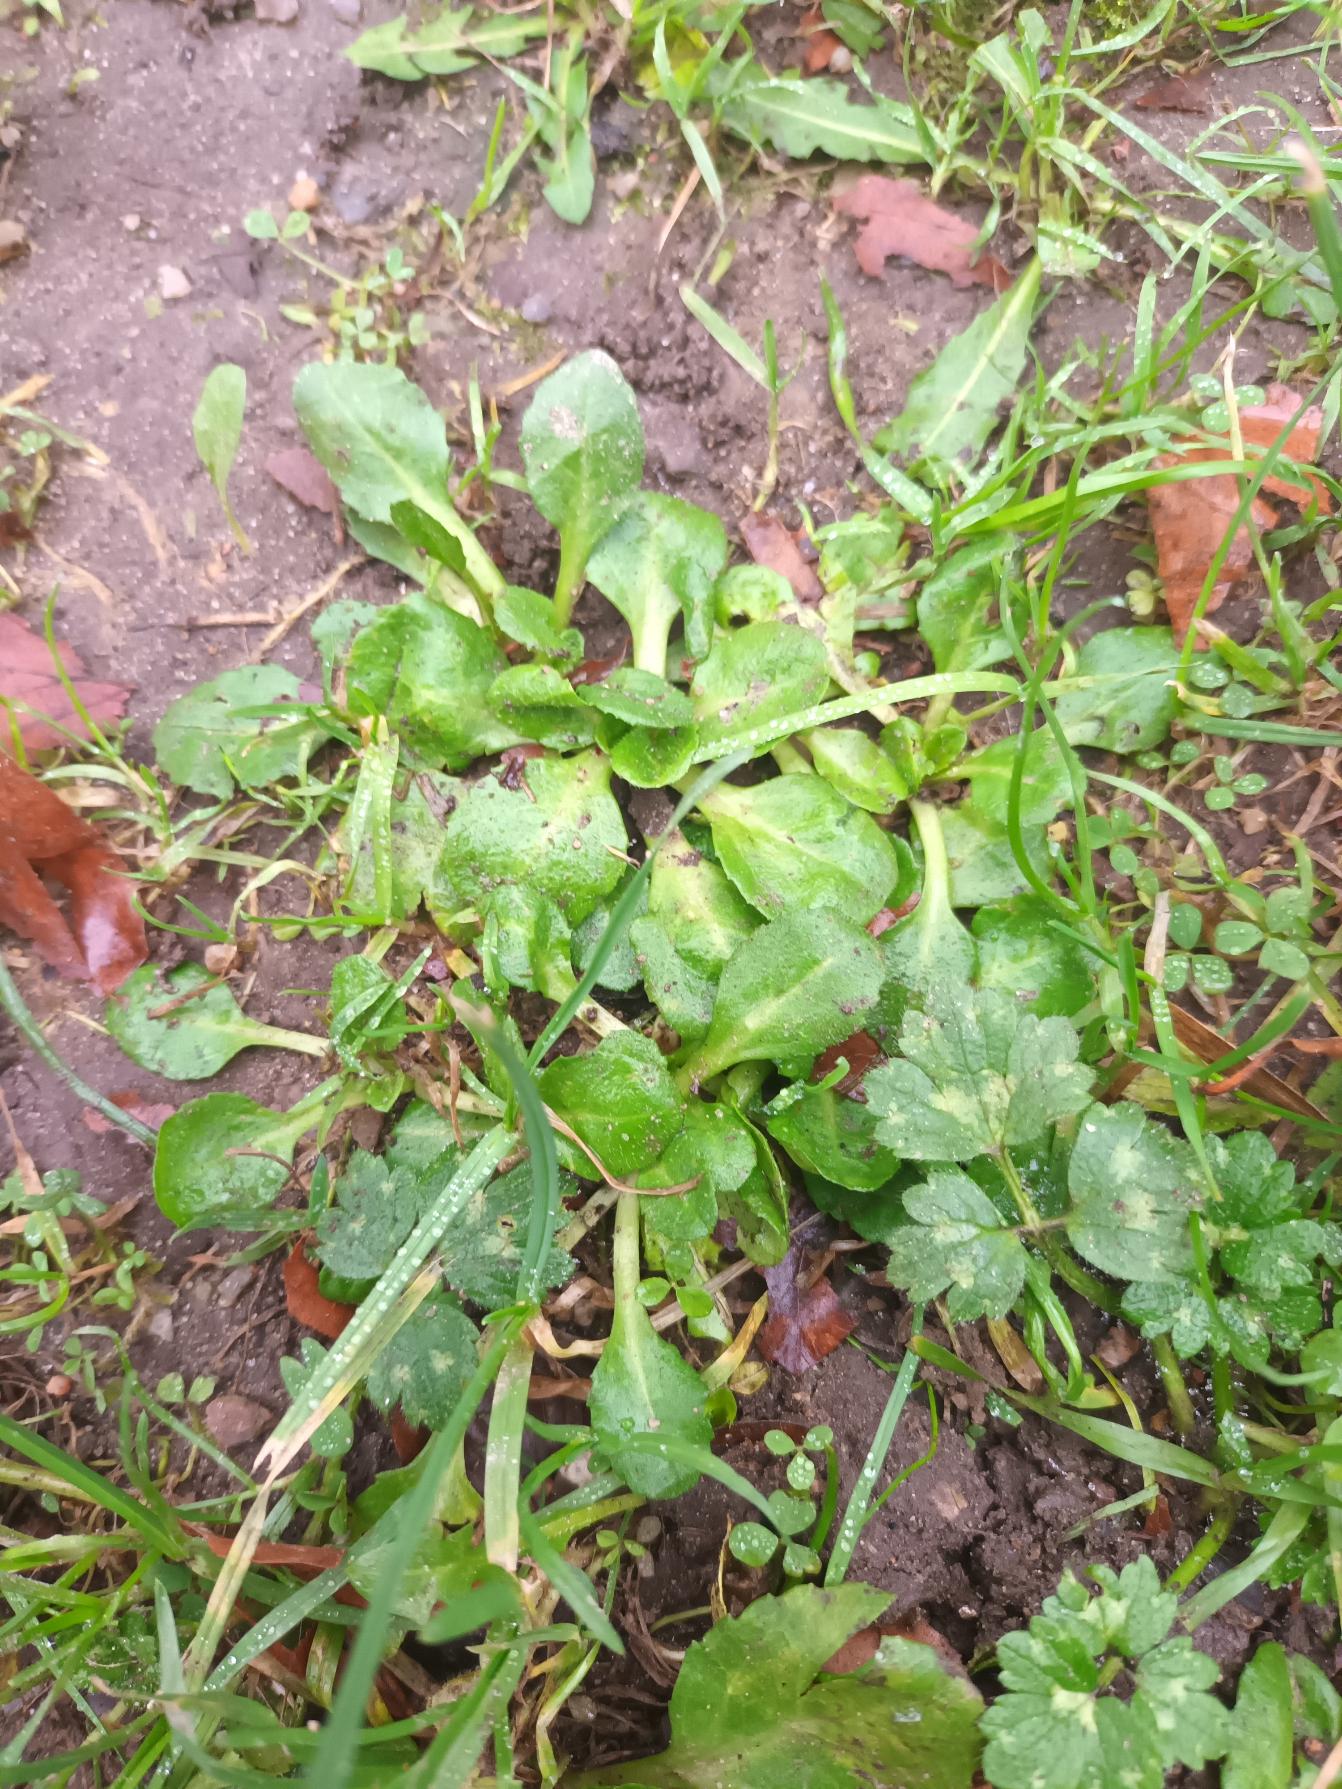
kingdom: Plantae
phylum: Tracheophyta
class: Magnoliopsida
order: Asterales
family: Asteraceae
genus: Bellis
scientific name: Bellis perennis
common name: Tusindfryd
